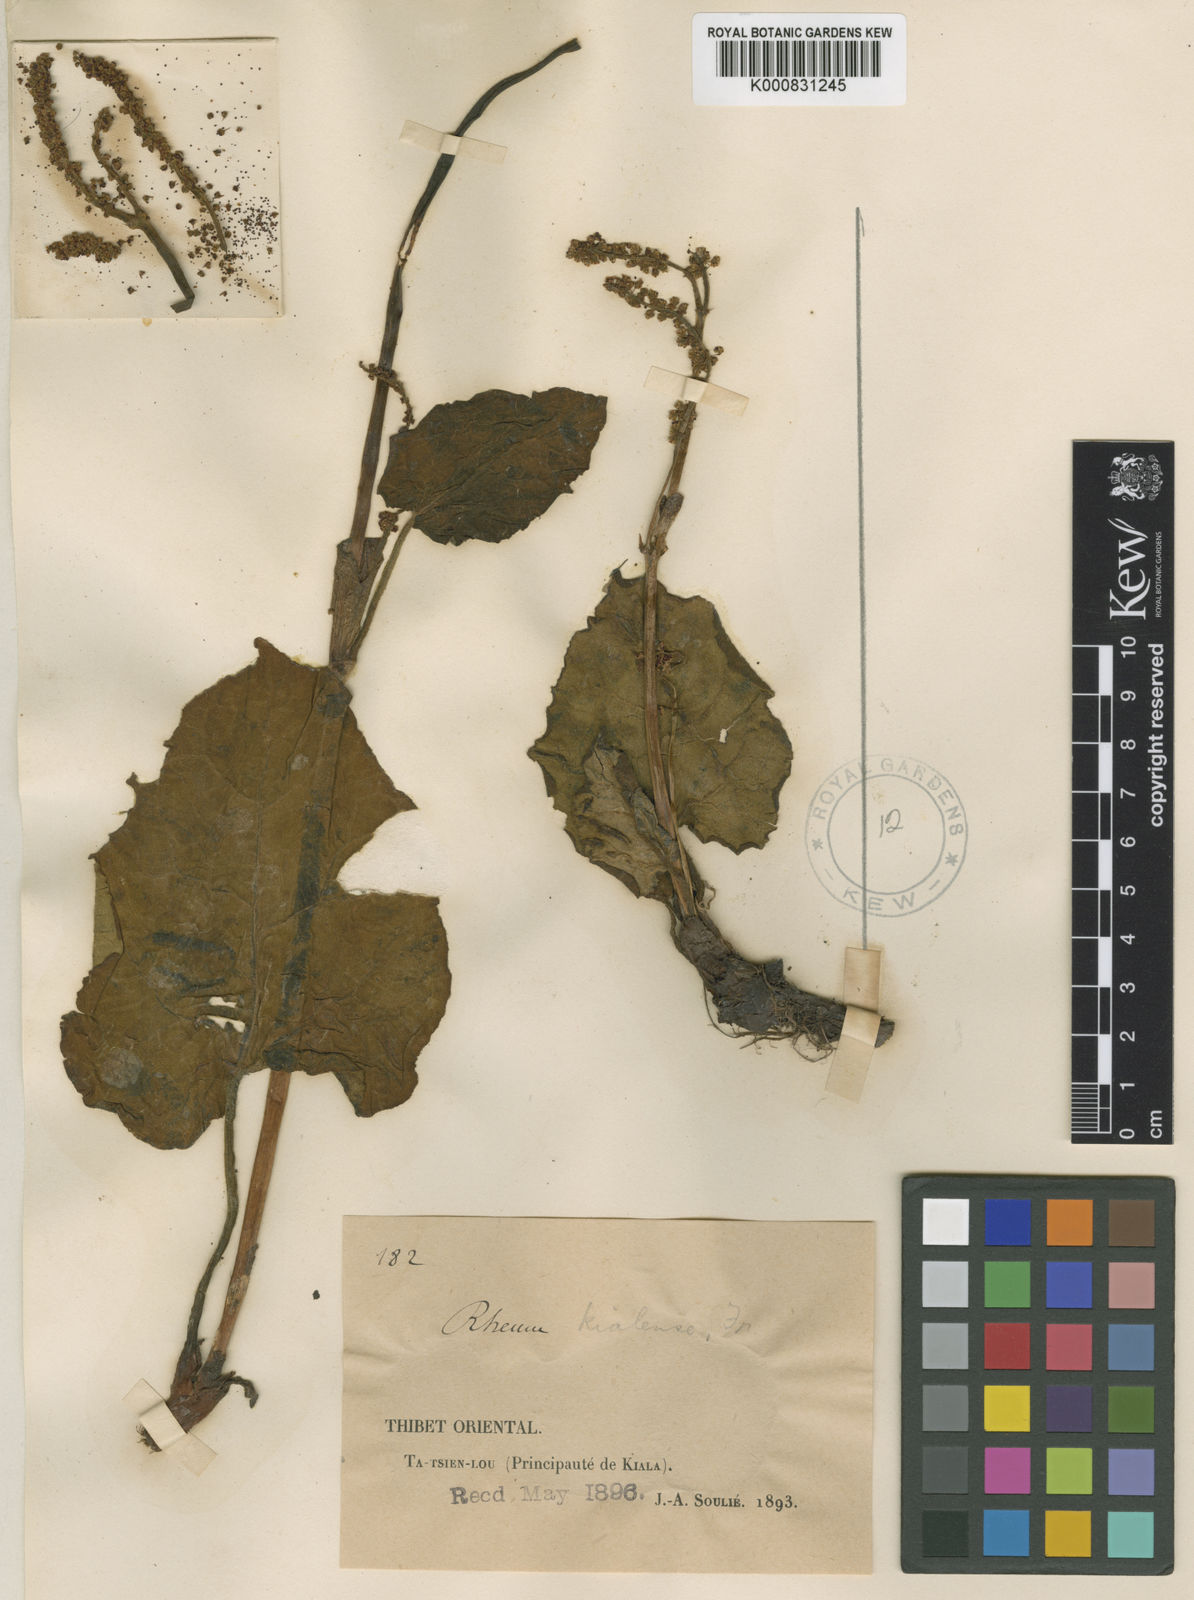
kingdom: Plantae
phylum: Tracheophyta
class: Magnoliopsida
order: Caryophyllales
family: Polygonaceae
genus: Rheum
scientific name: Rheum kialense
